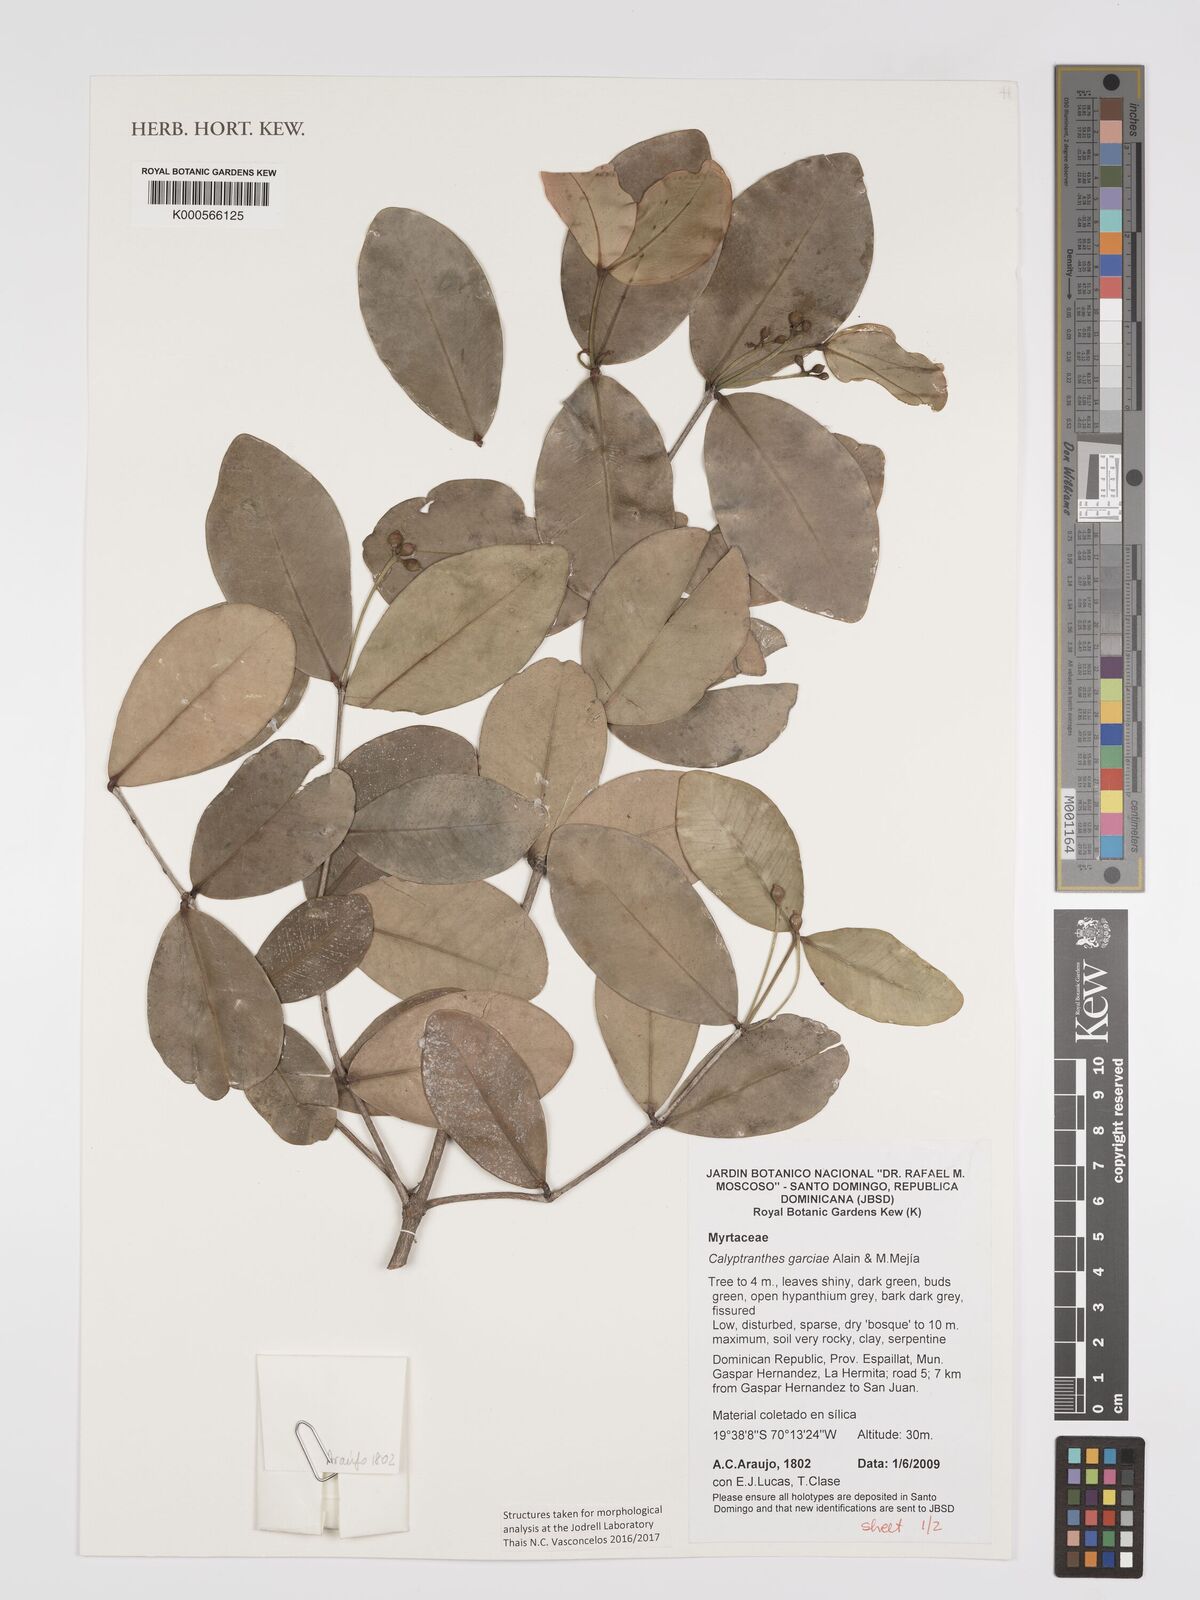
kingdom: Plantae
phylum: Tracheophyta
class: Magnoliopsida
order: Myrtales
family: Myrtaceae
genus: Myrcia
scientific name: Myrcia garciae
